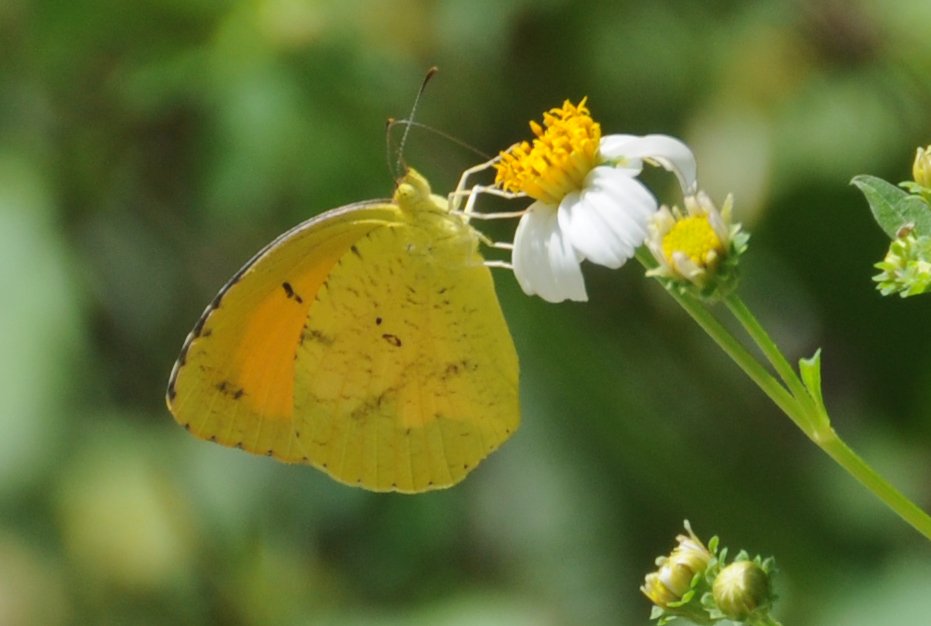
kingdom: Animalia
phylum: Arthropoda
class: Insecta
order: Lepidoptera
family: Pieridae
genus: Abaeis
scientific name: Abaeis nicippe
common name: Sleepy Orange
